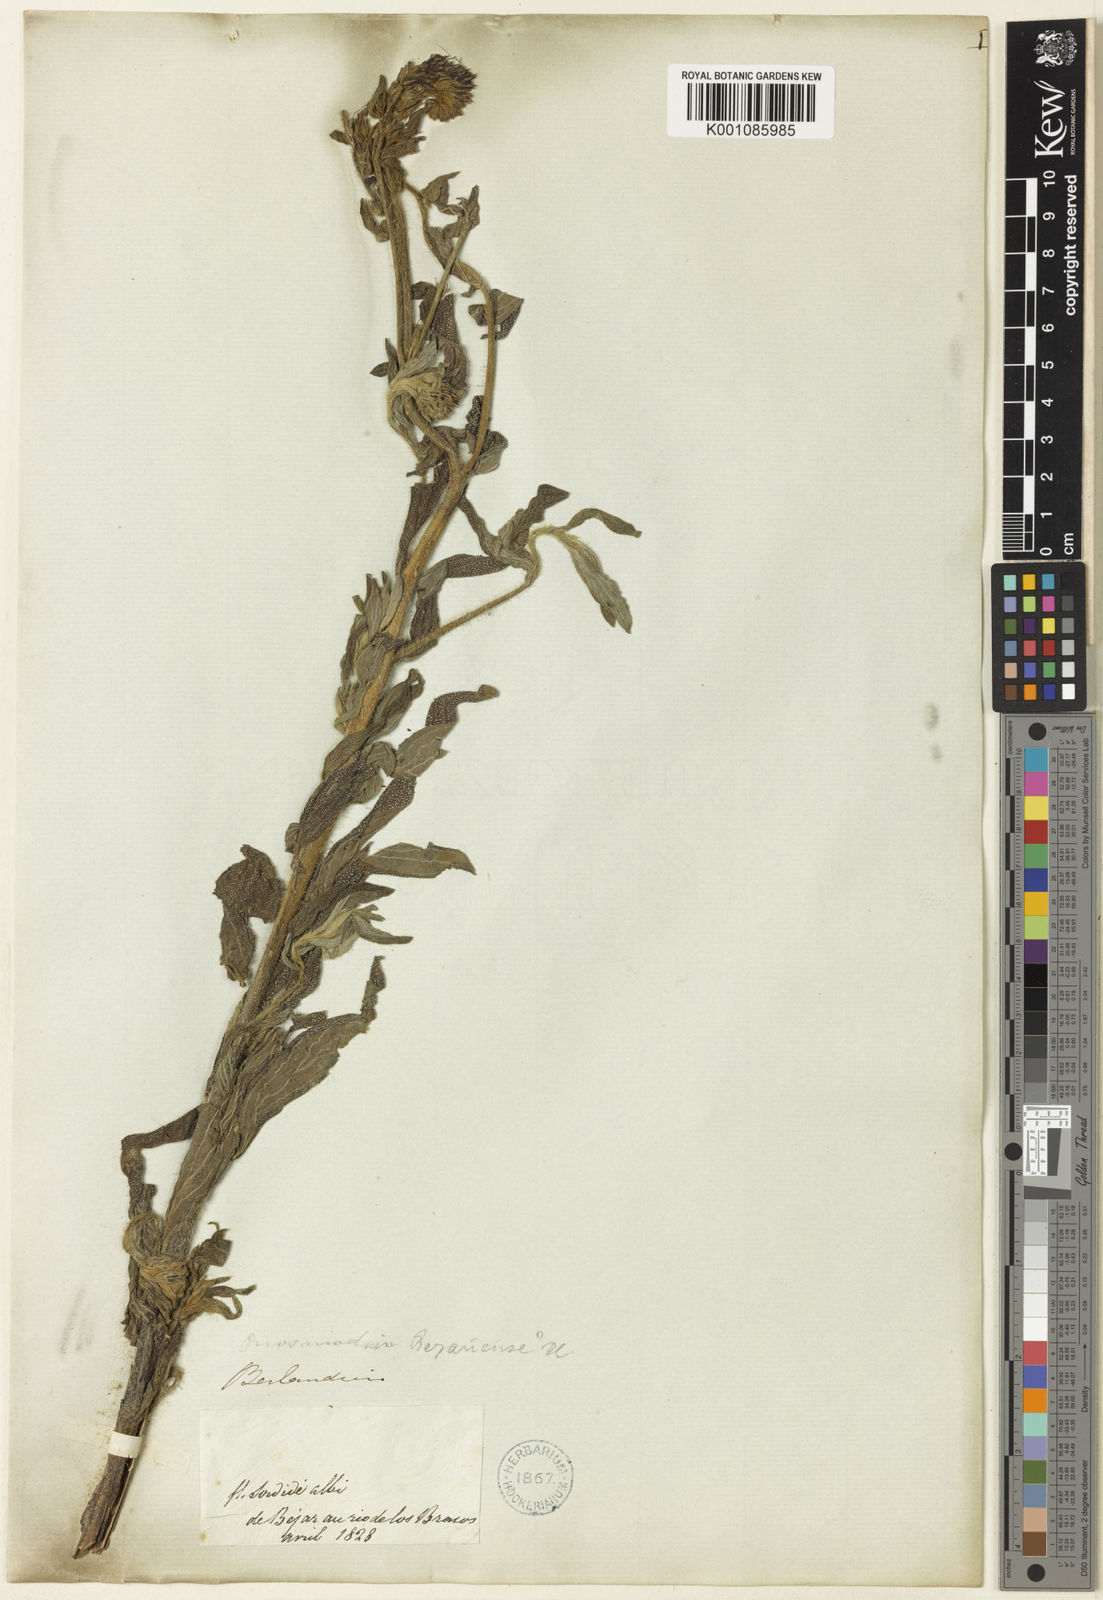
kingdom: Plantae
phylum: Tracheophyta
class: Magnoliopsida
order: Boraginales
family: Boraginaceae
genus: Lithospermum
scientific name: Lithospermum molle
